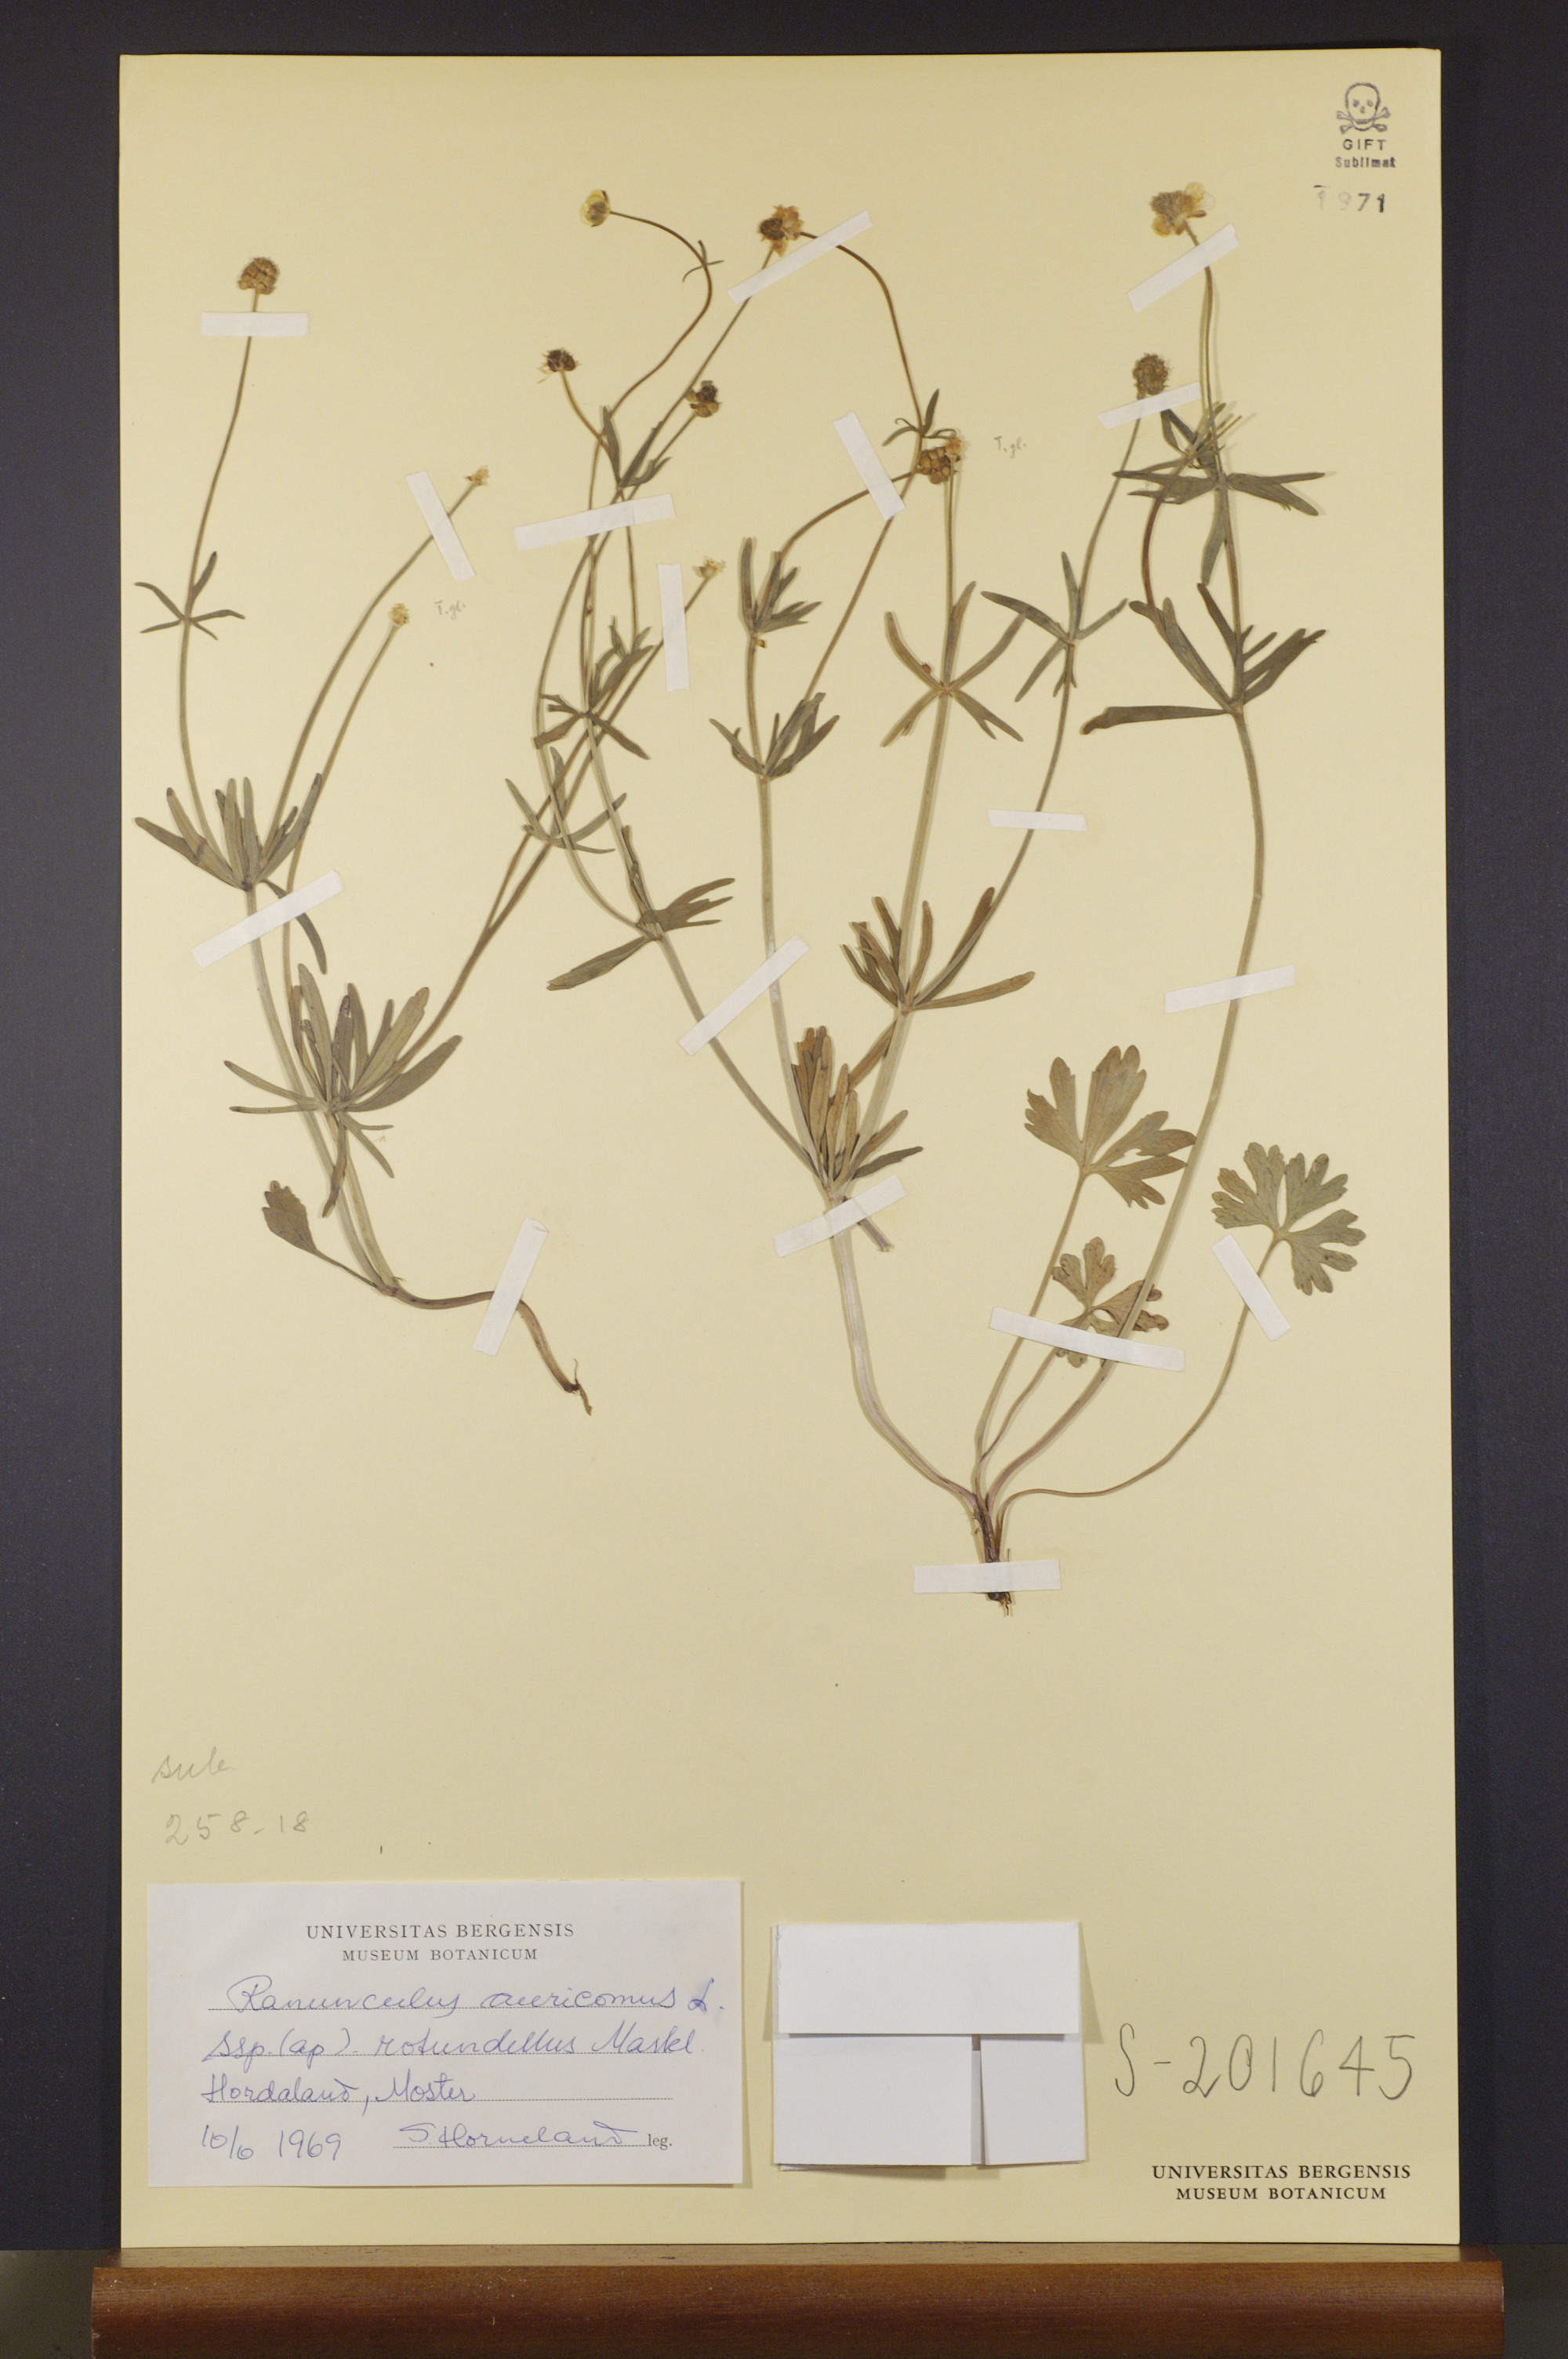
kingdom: Plantae
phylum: Tracheophyta
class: Magnoliopsida
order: Ranunculales
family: Ranunculaceae
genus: Ranunculus
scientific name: Ranunculus rotundellus
